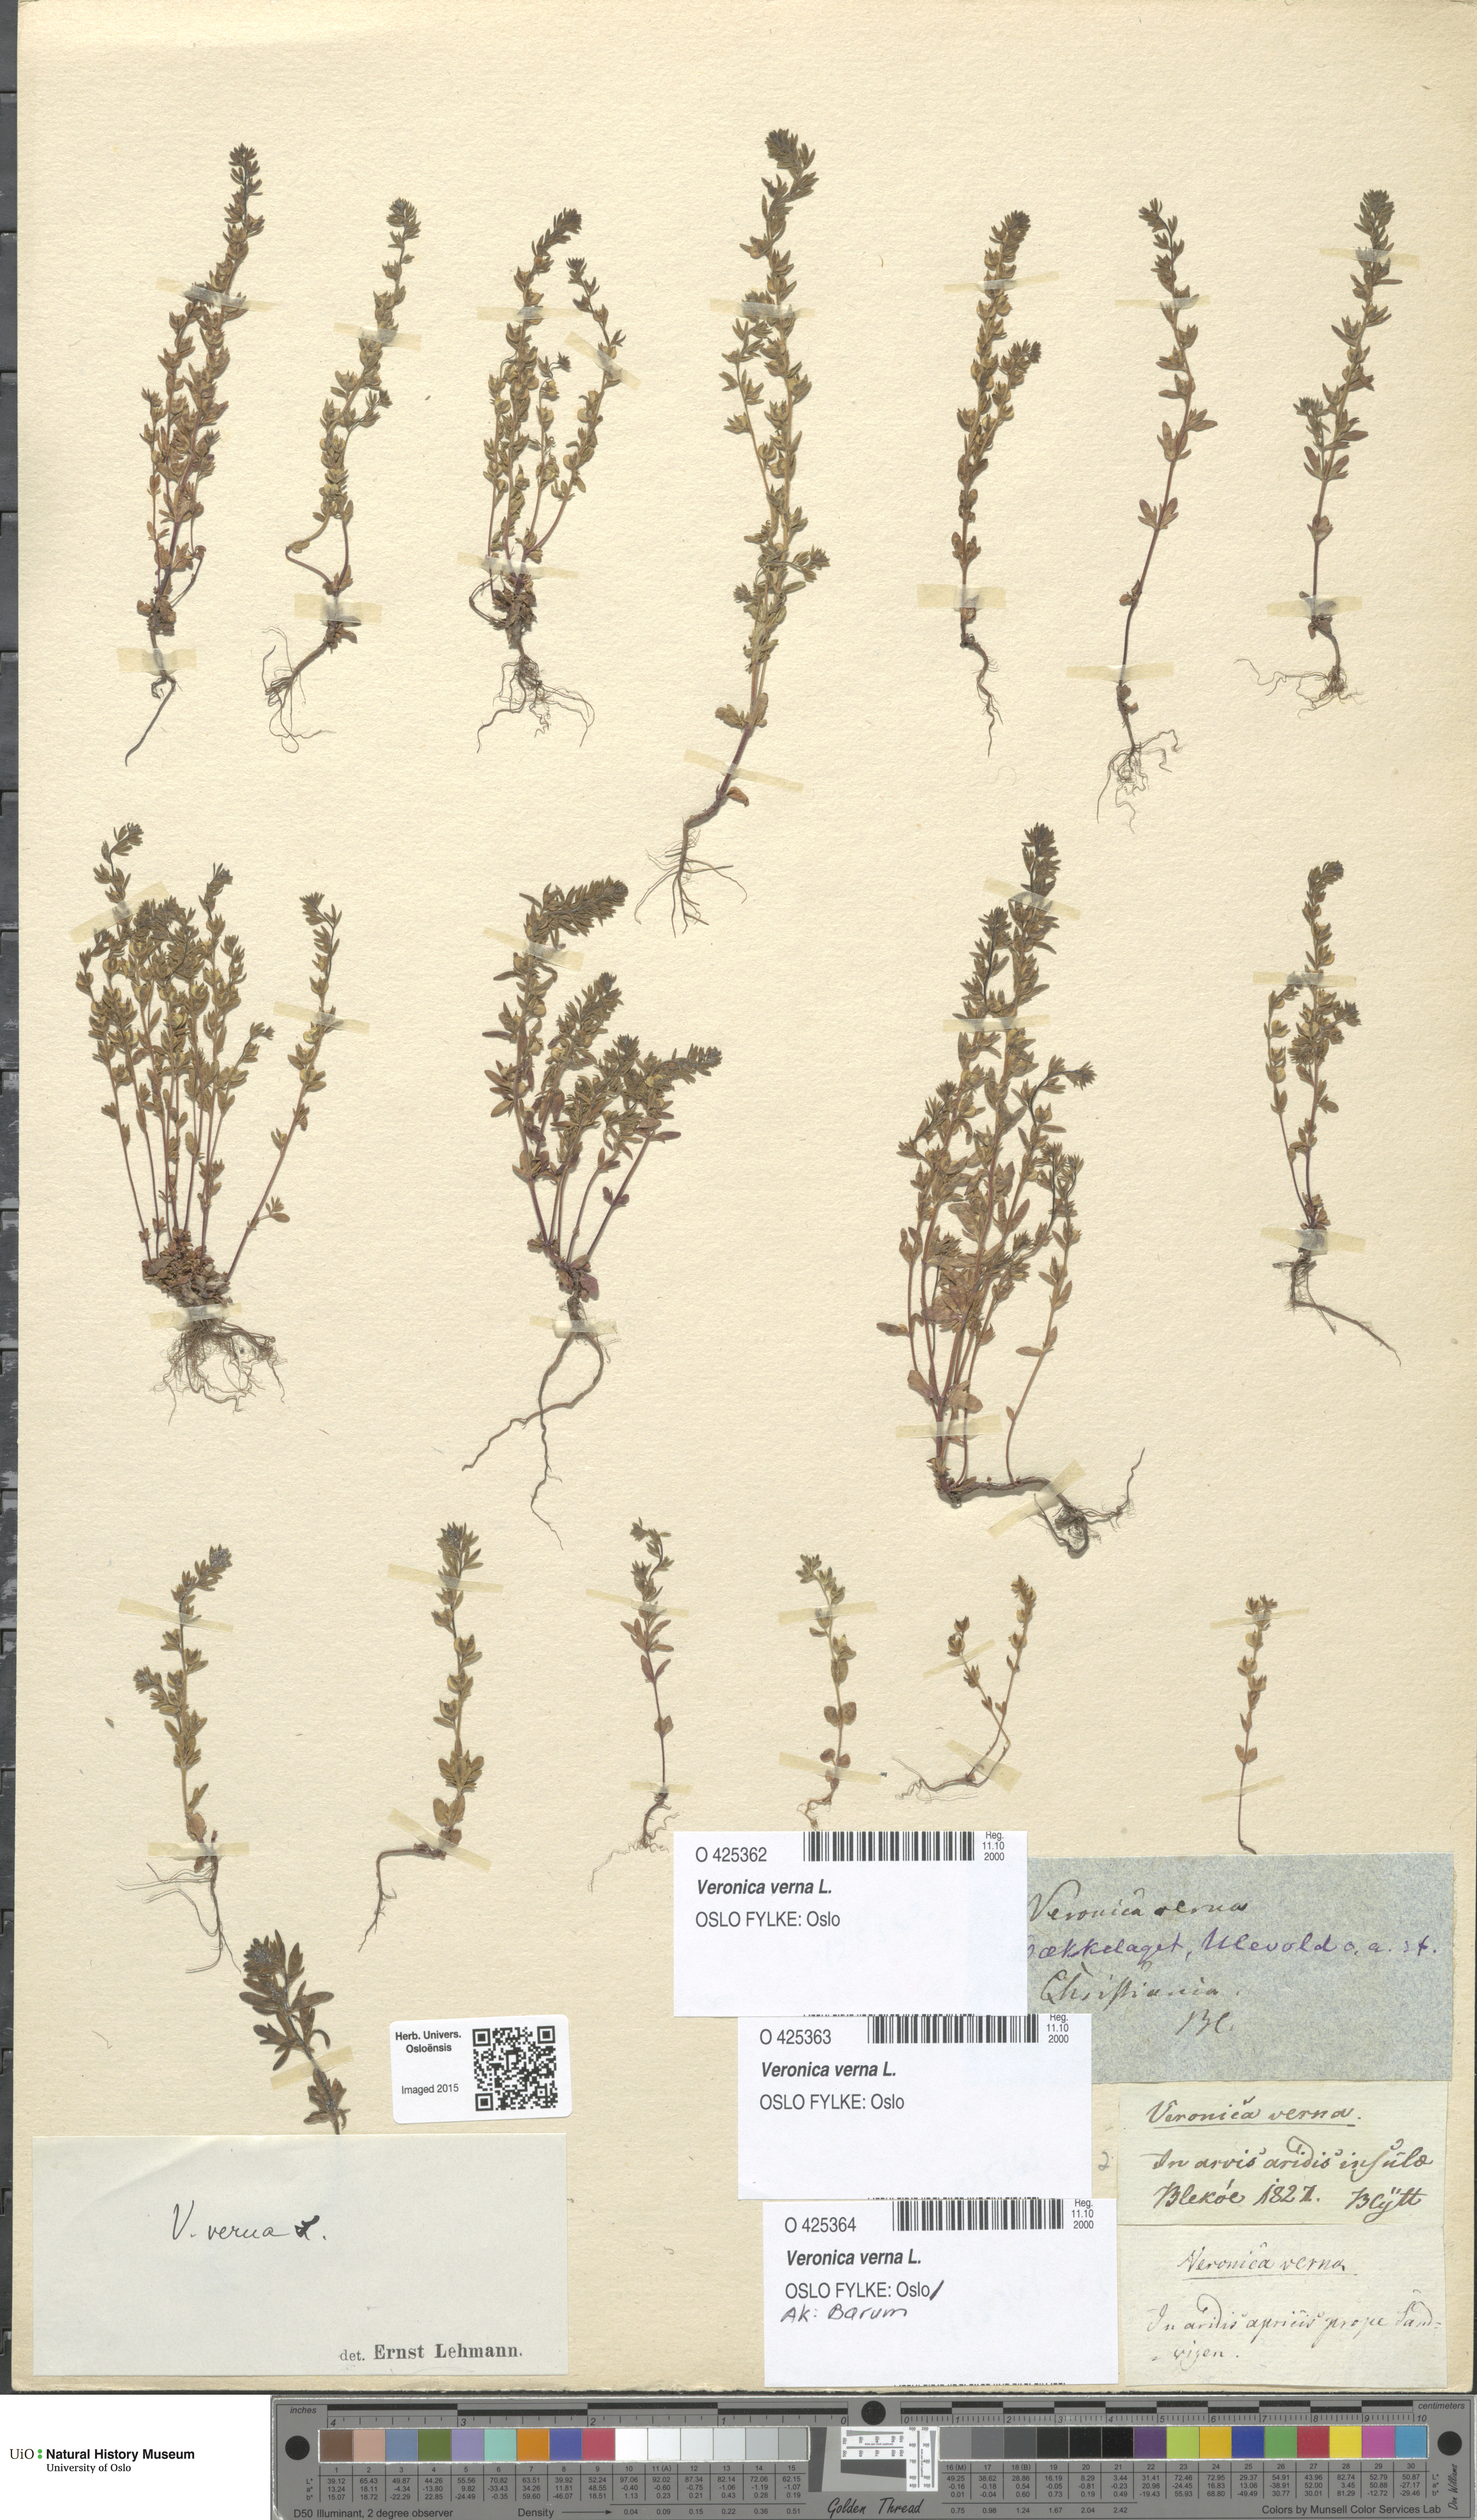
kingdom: Plantae
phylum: Tracheophyta
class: Magnoliopsida
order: Lamiales
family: Plantaginaceae
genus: Veronica
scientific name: Veronica verna
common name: Spring speedwell
